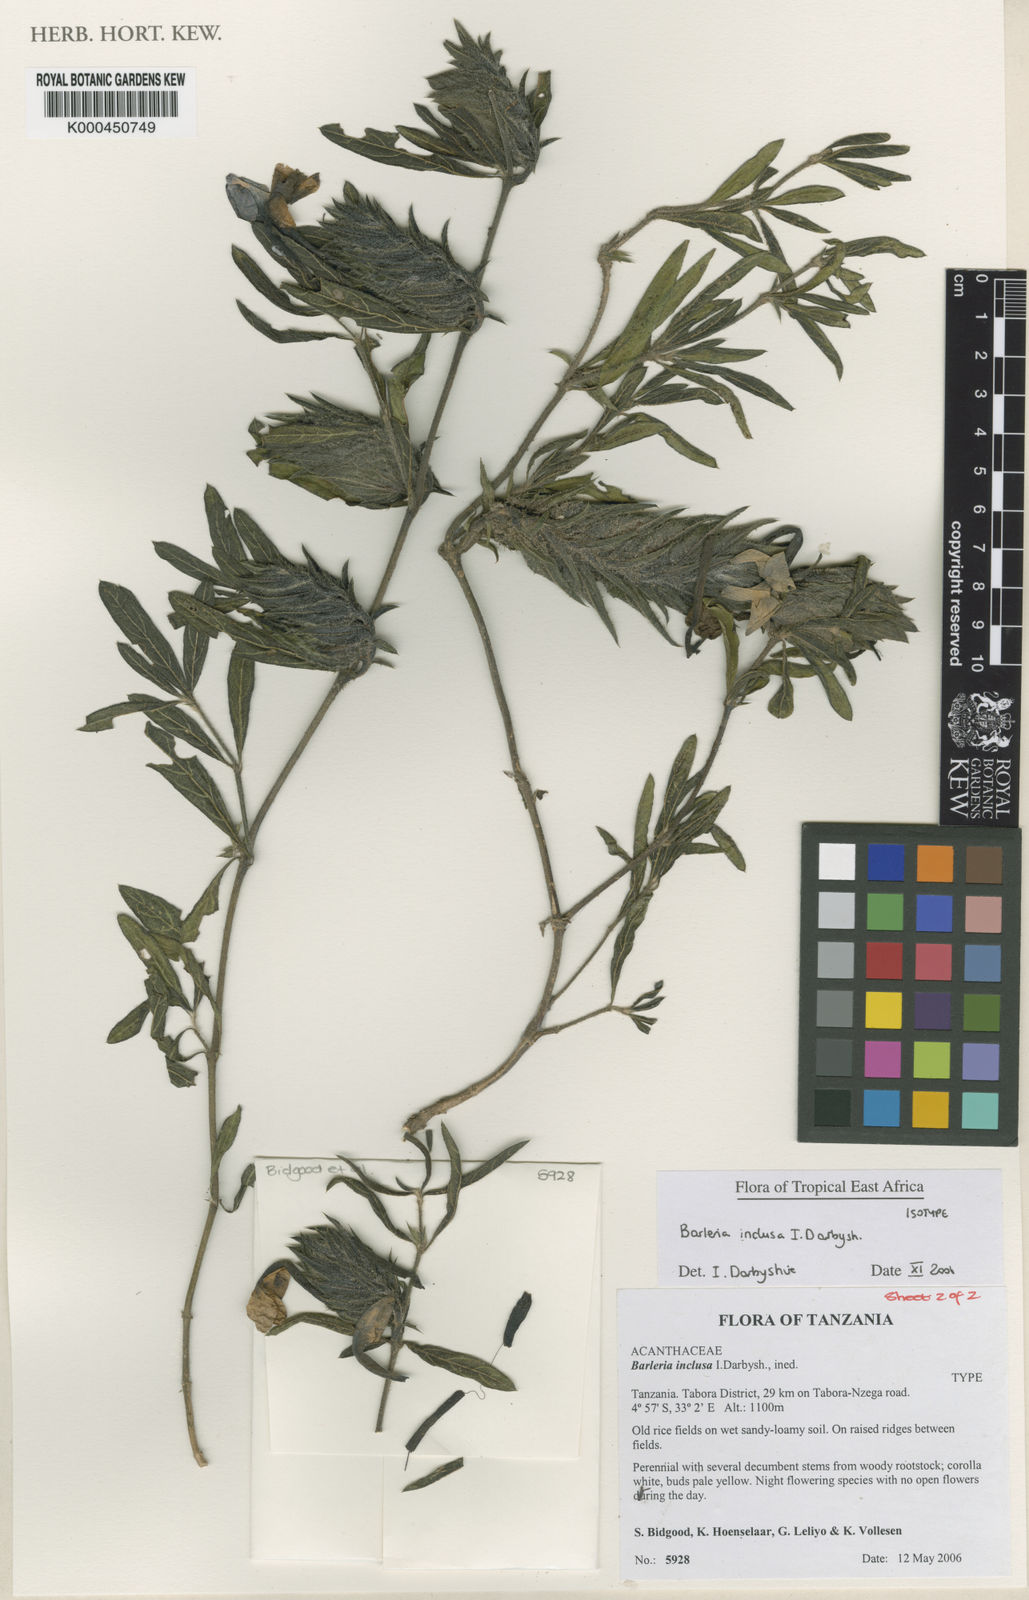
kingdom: Plantae
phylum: Tracheophyta
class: Magnoliopsida
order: Lamiales
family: Acanthaceae
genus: Barleria
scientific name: Barleria inclusa
